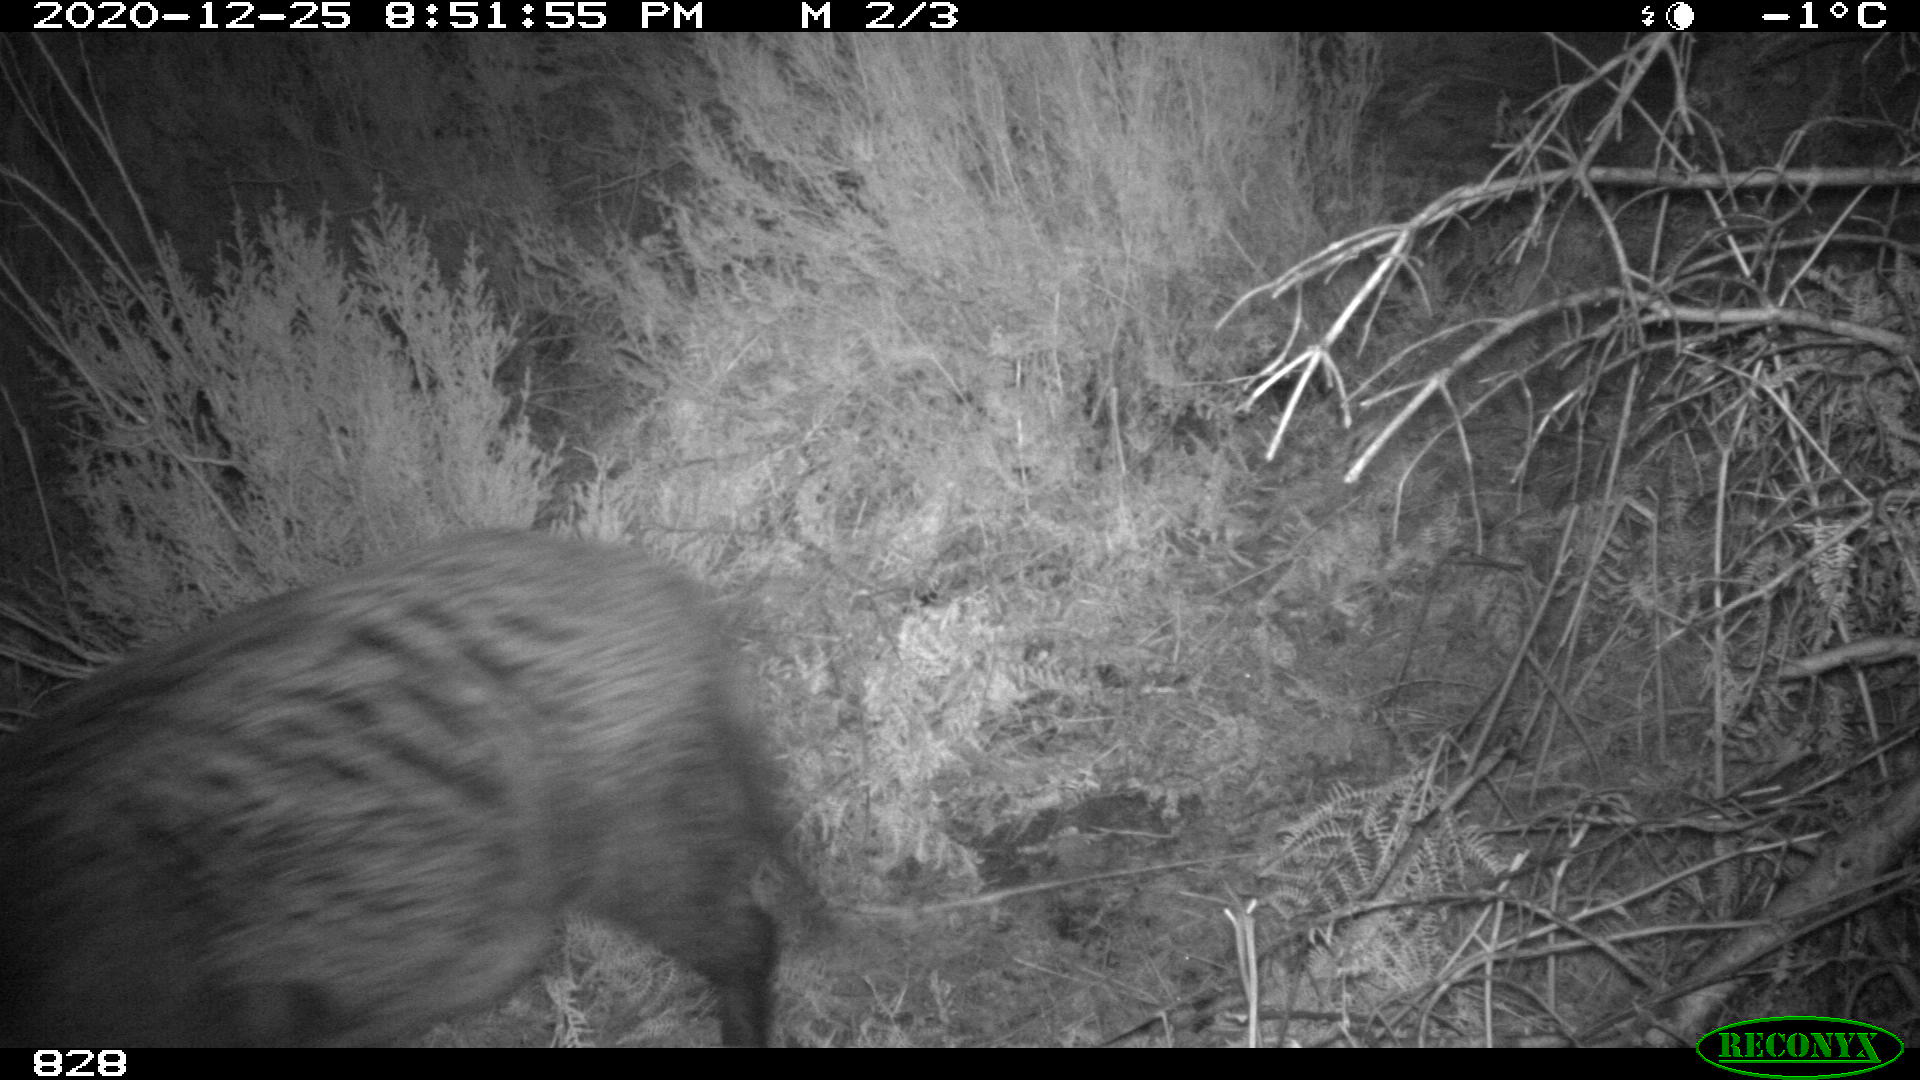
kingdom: Animalia
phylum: Chordata
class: Mammalia
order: Artiodactyla
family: Suidae
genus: Sus
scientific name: Sus scrofa
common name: Wild boar
